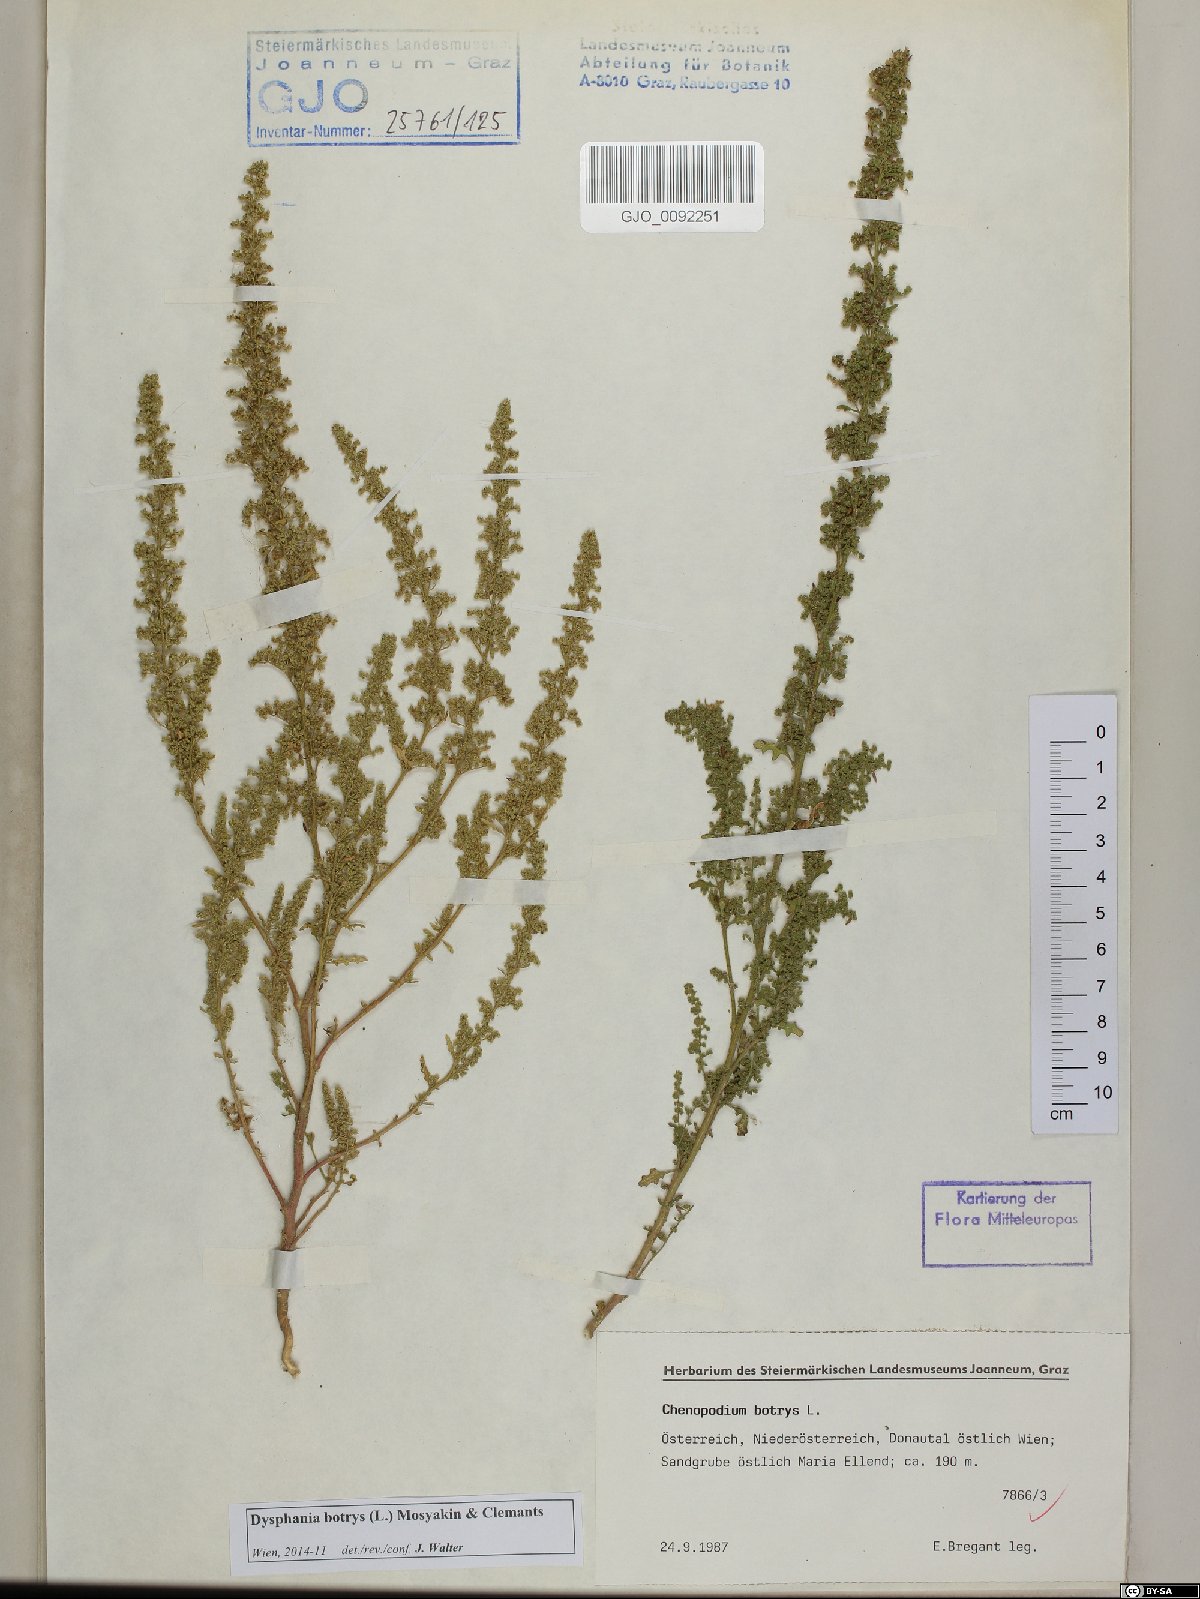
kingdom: Plantae
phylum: Tracheophyta
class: Magnoliopsida
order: Caryophyllales
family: Amaranthaceae
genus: Dysphania
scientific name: Dysphania botrys
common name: Feather-geranium
